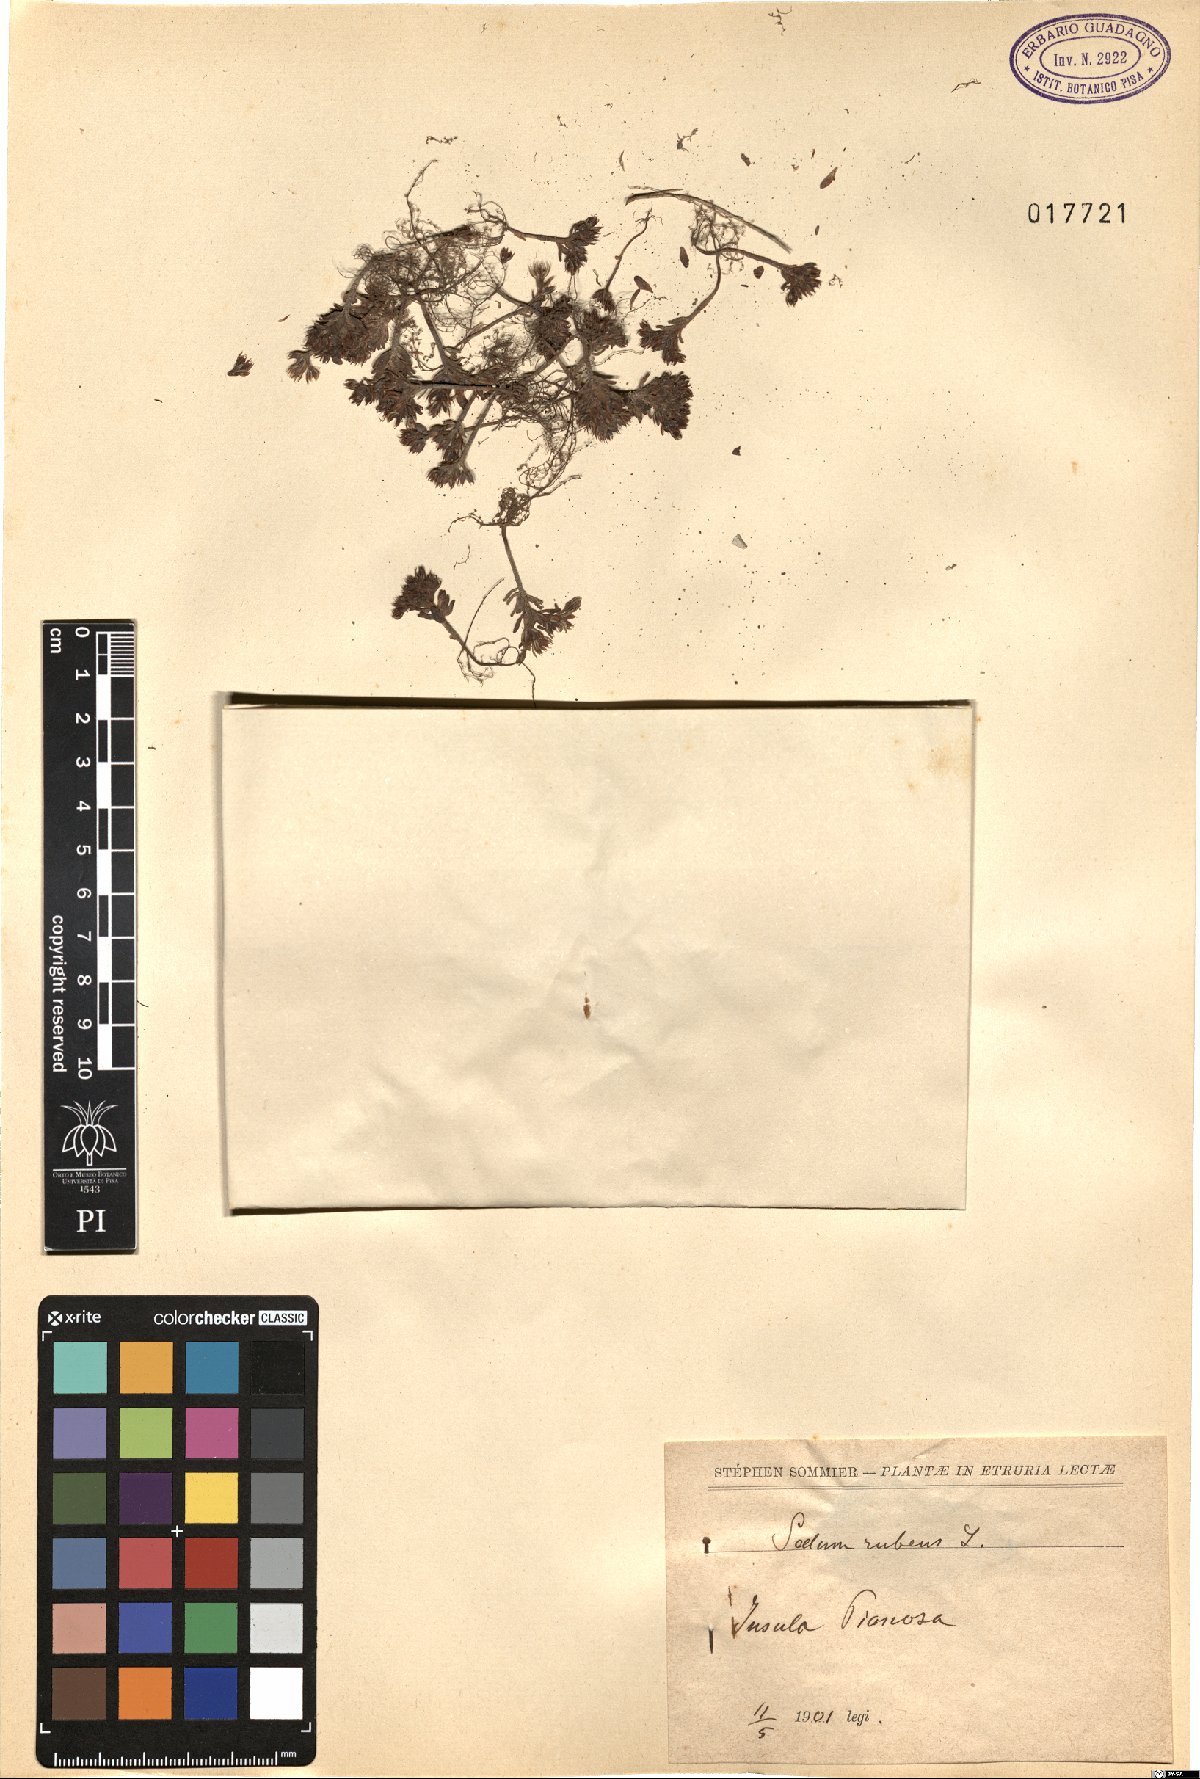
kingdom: Plantae
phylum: Tracheophyta
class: Magnoliopsida
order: Saxifragales
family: Crassulaceae
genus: Sedum
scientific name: Sedum rubens
